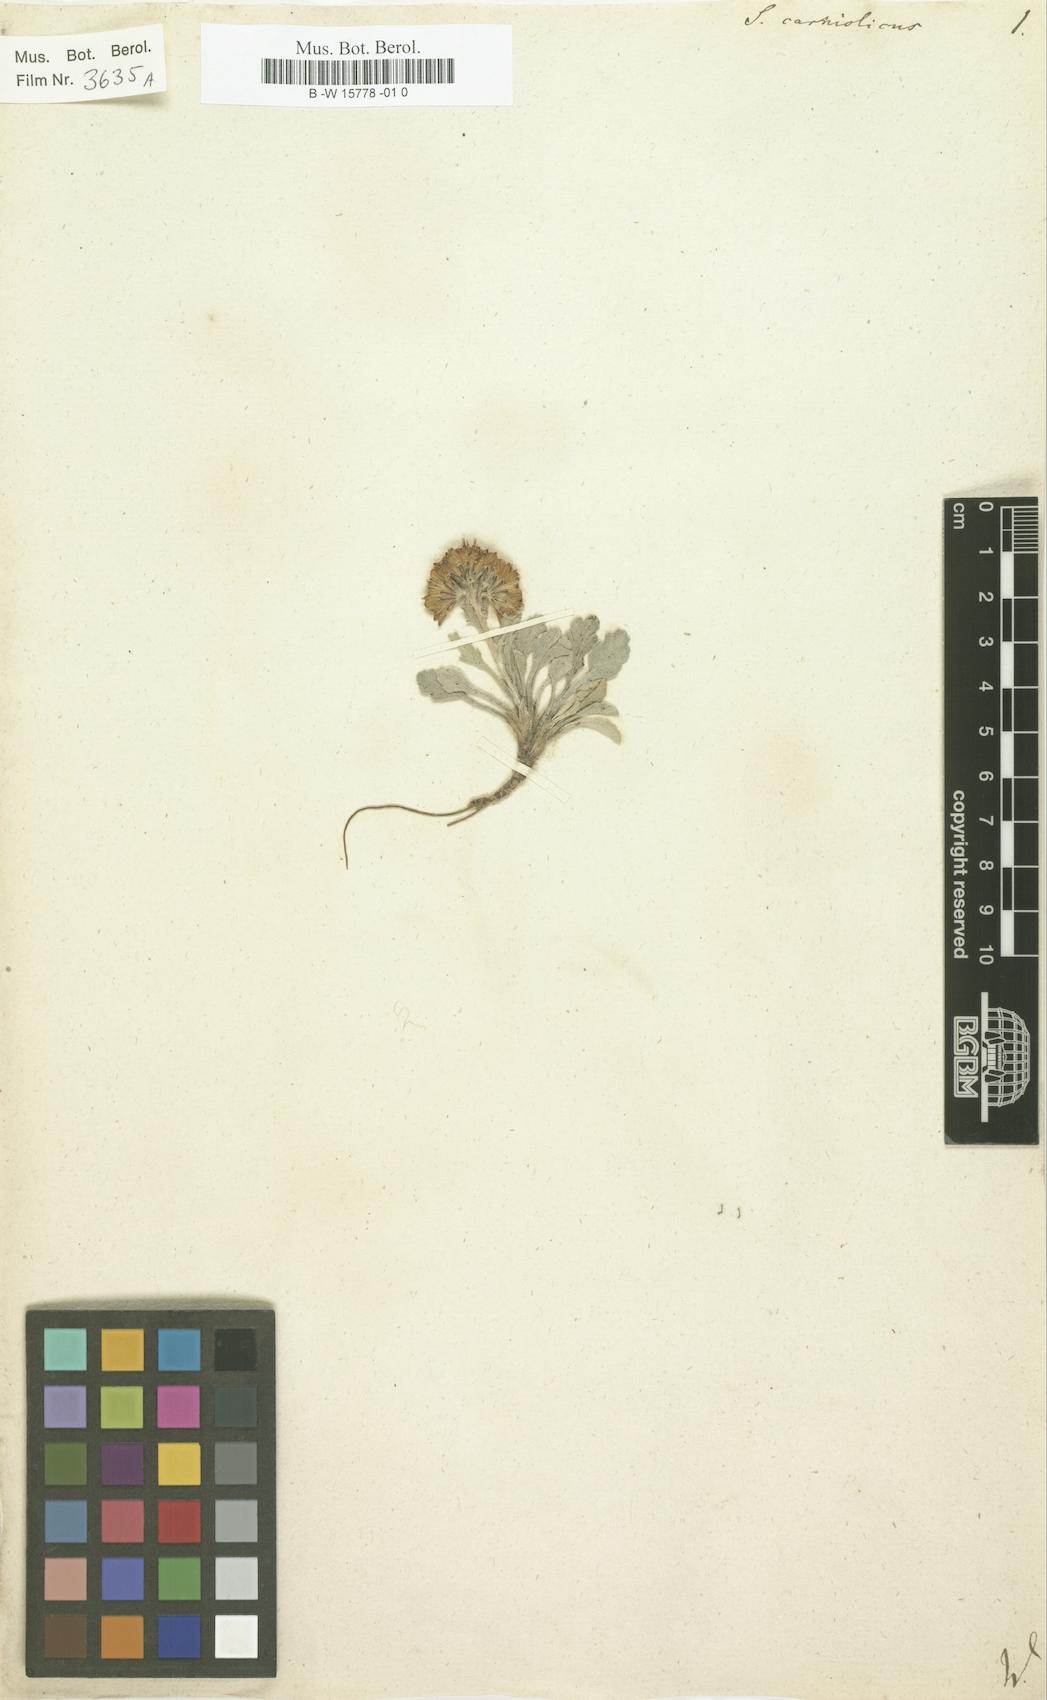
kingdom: Plantae
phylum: Tracheophyta
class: Magnoliopsida
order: Asterales
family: Asteraceae
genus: Jacobaea
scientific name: Jacobaea carniolica
